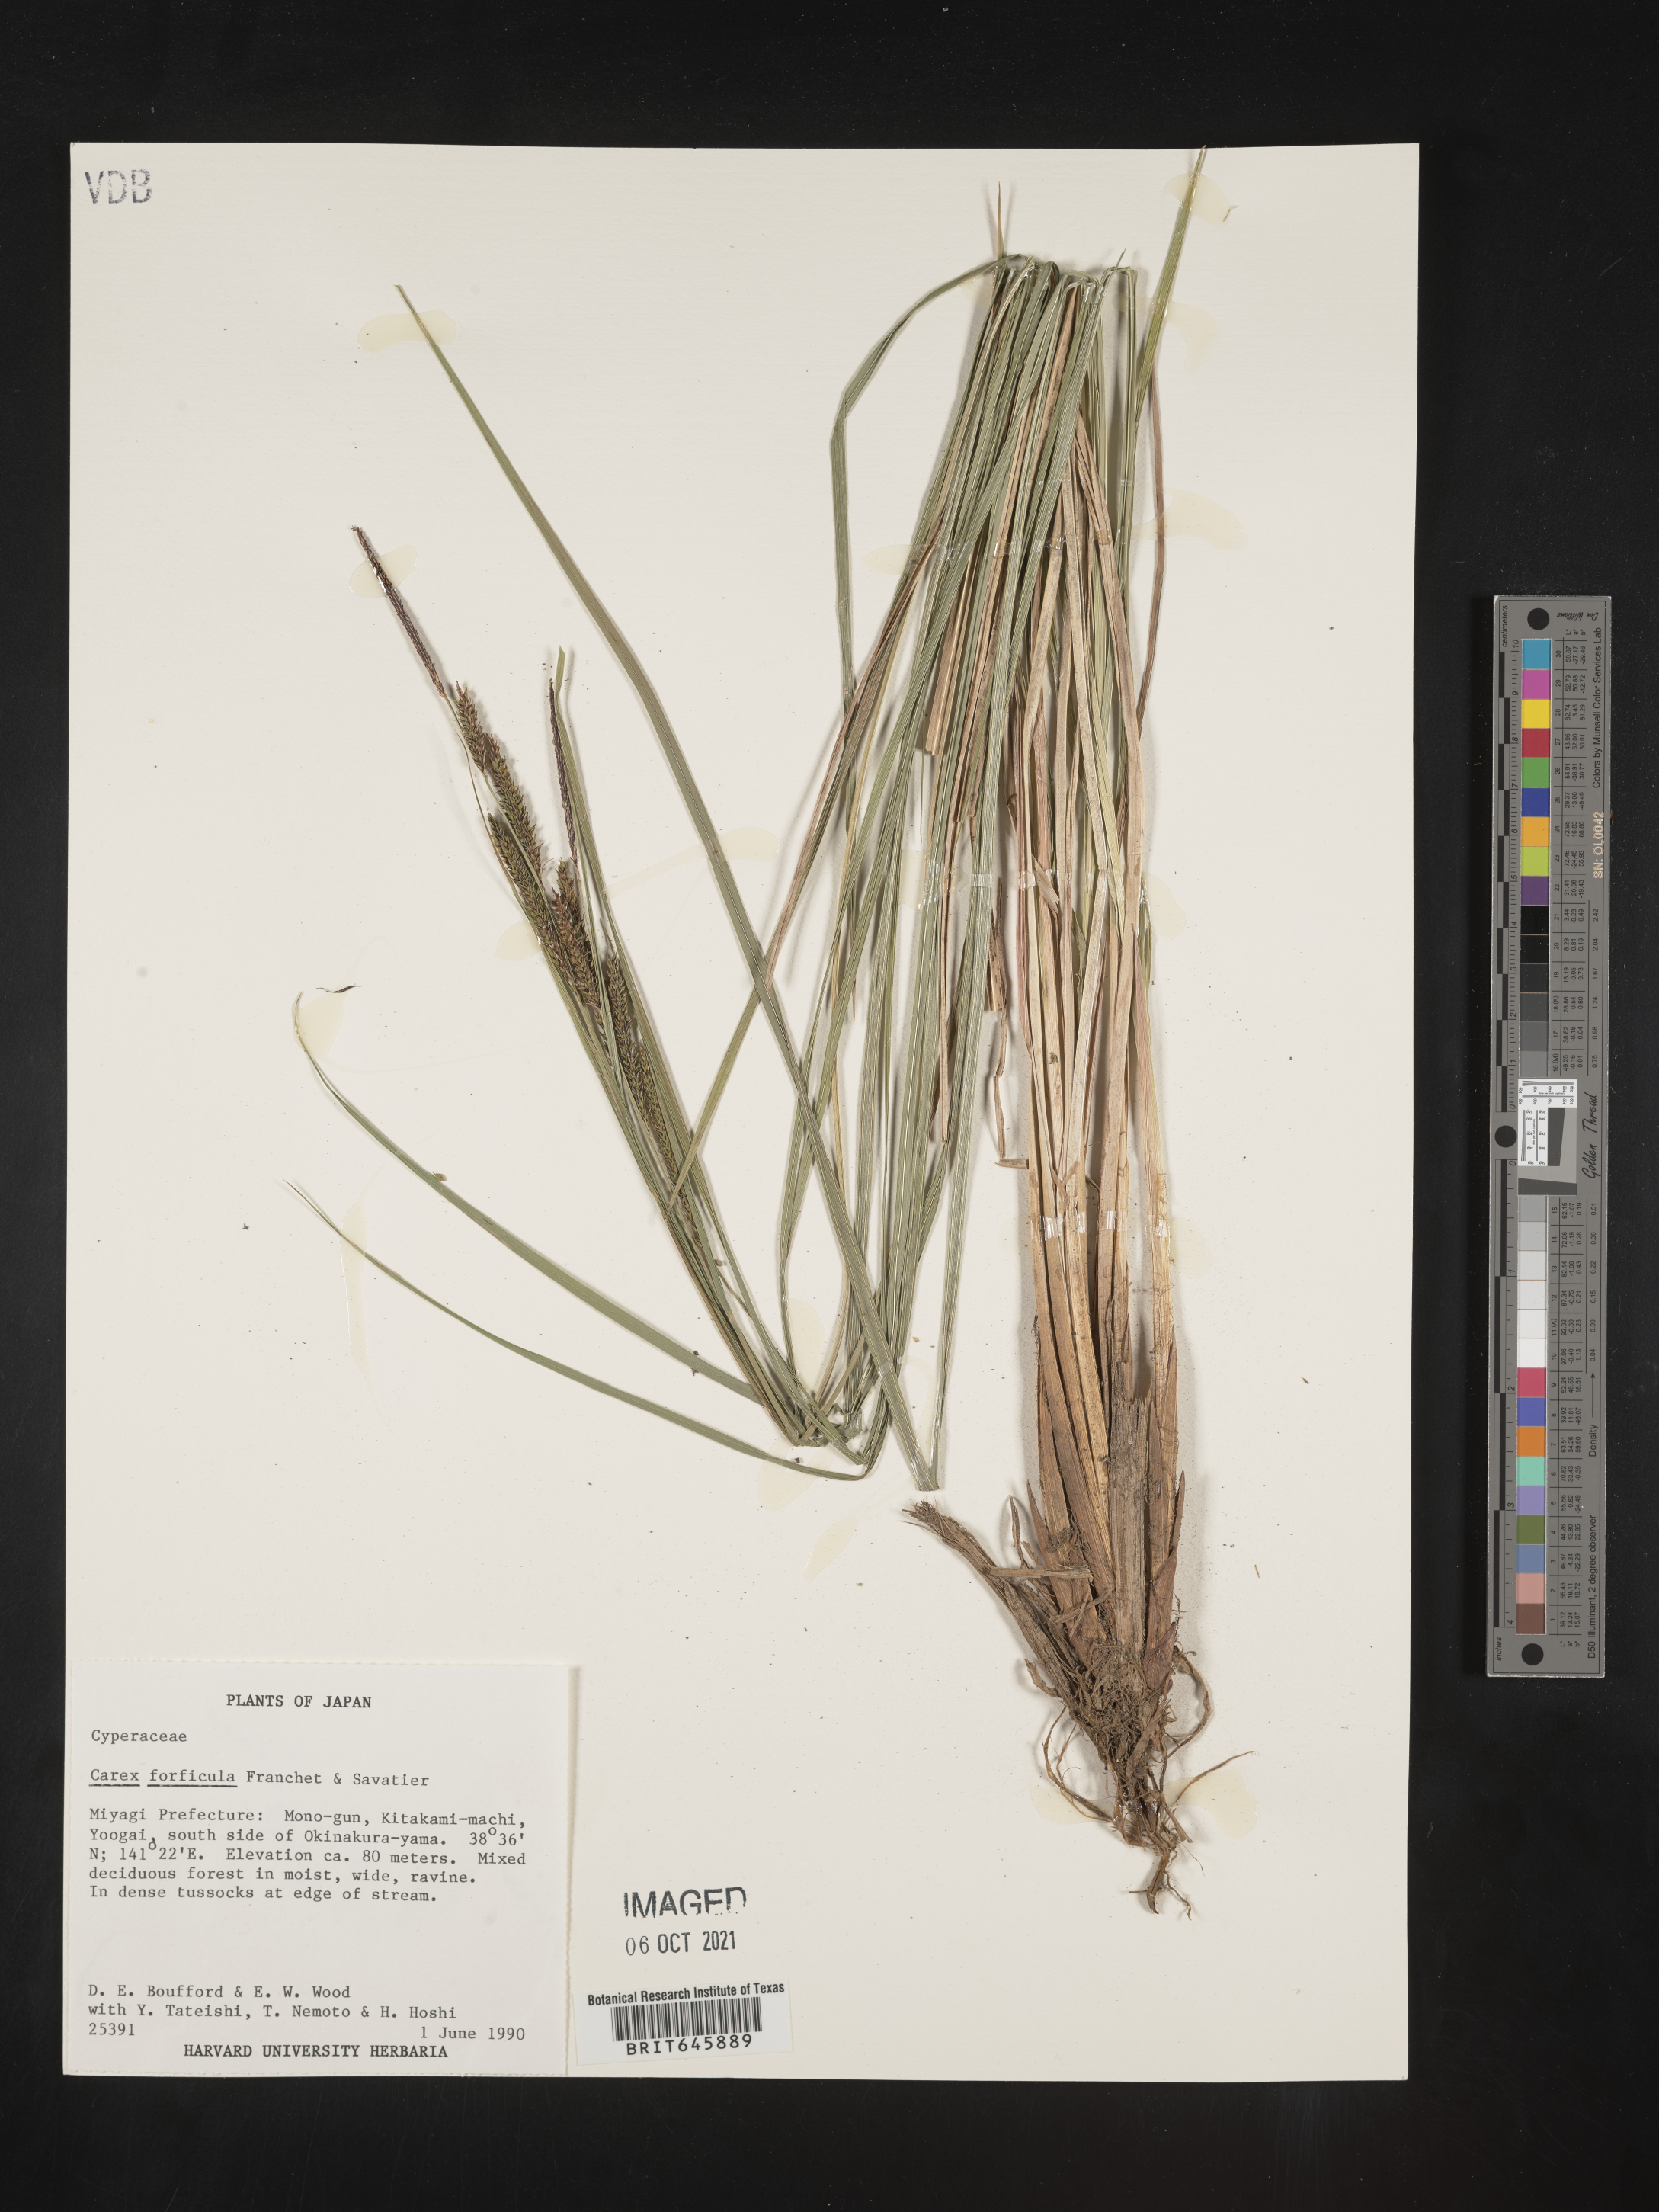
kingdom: Plantae
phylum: Tracheophyta
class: Liliopsida
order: Poales
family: Cyperaceae
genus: Carex
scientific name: Carex forficula
